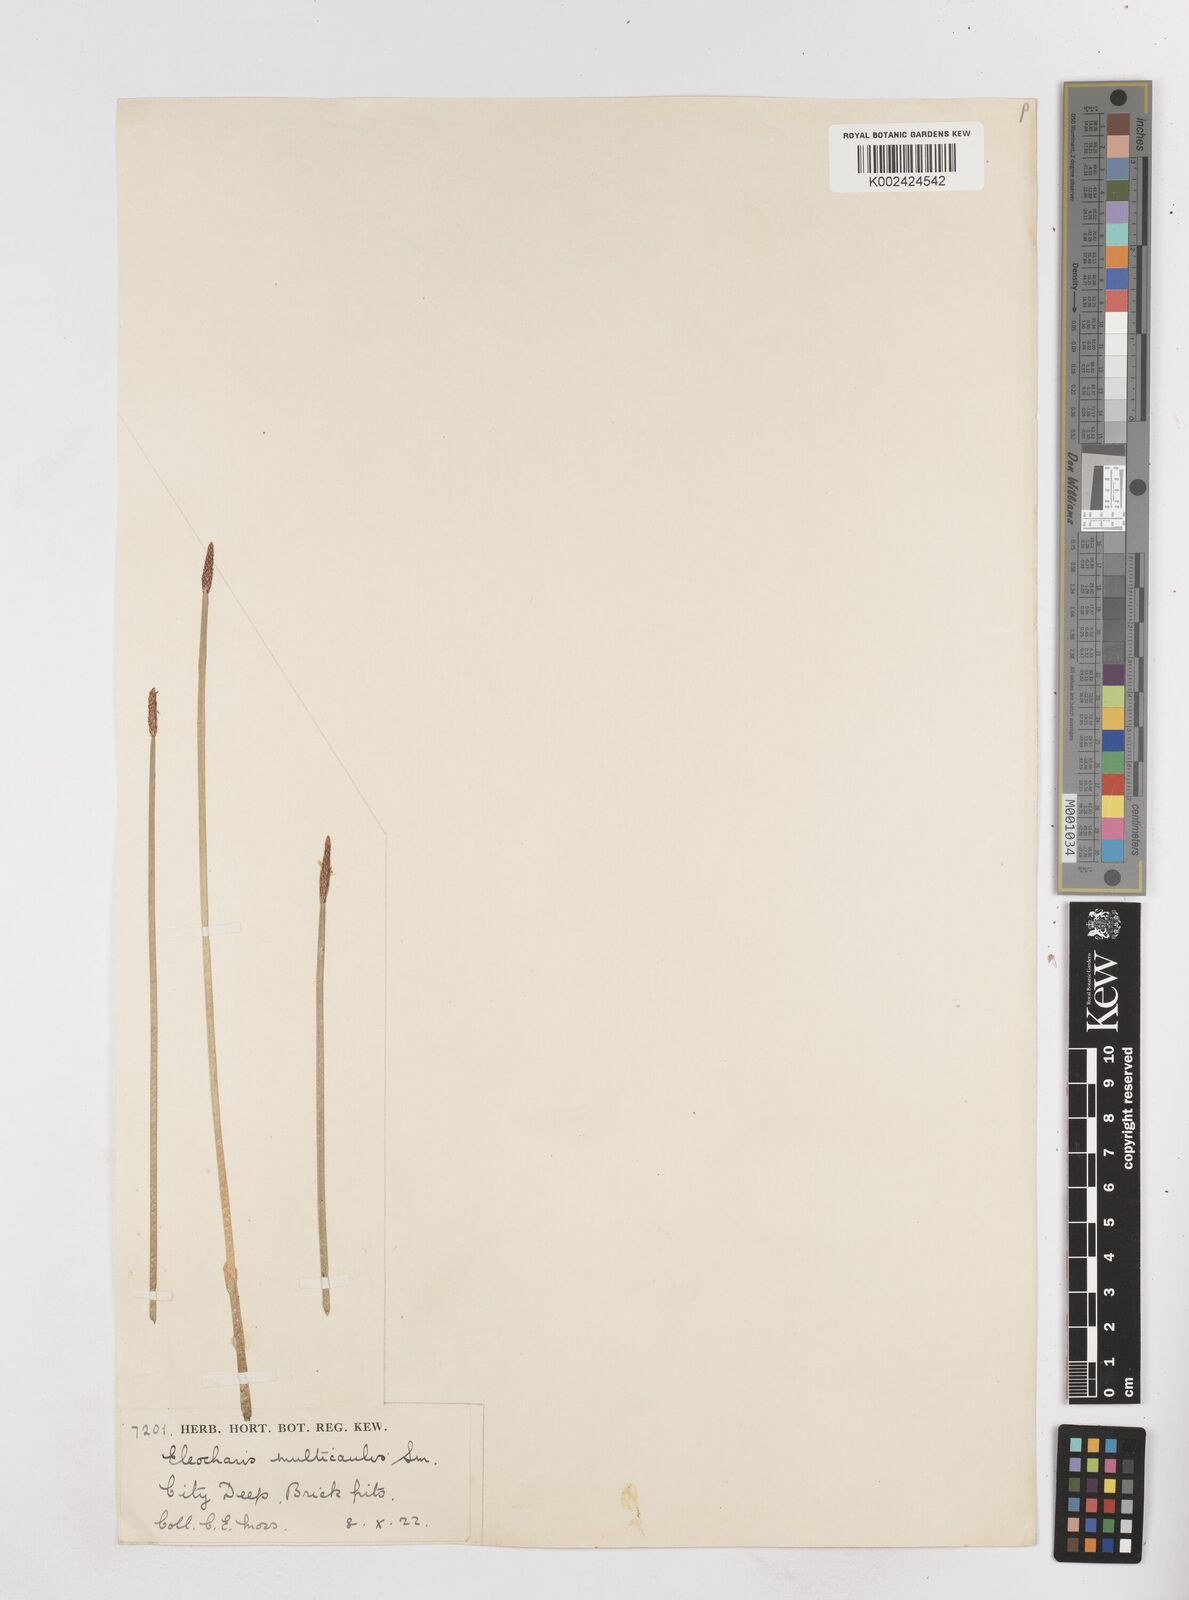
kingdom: Plantae
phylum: Tracheophyta
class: Liliopsida
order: Poales
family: Cyperaceae
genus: Eleocharis
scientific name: Eleocharis palustris
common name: Common spike-rush
